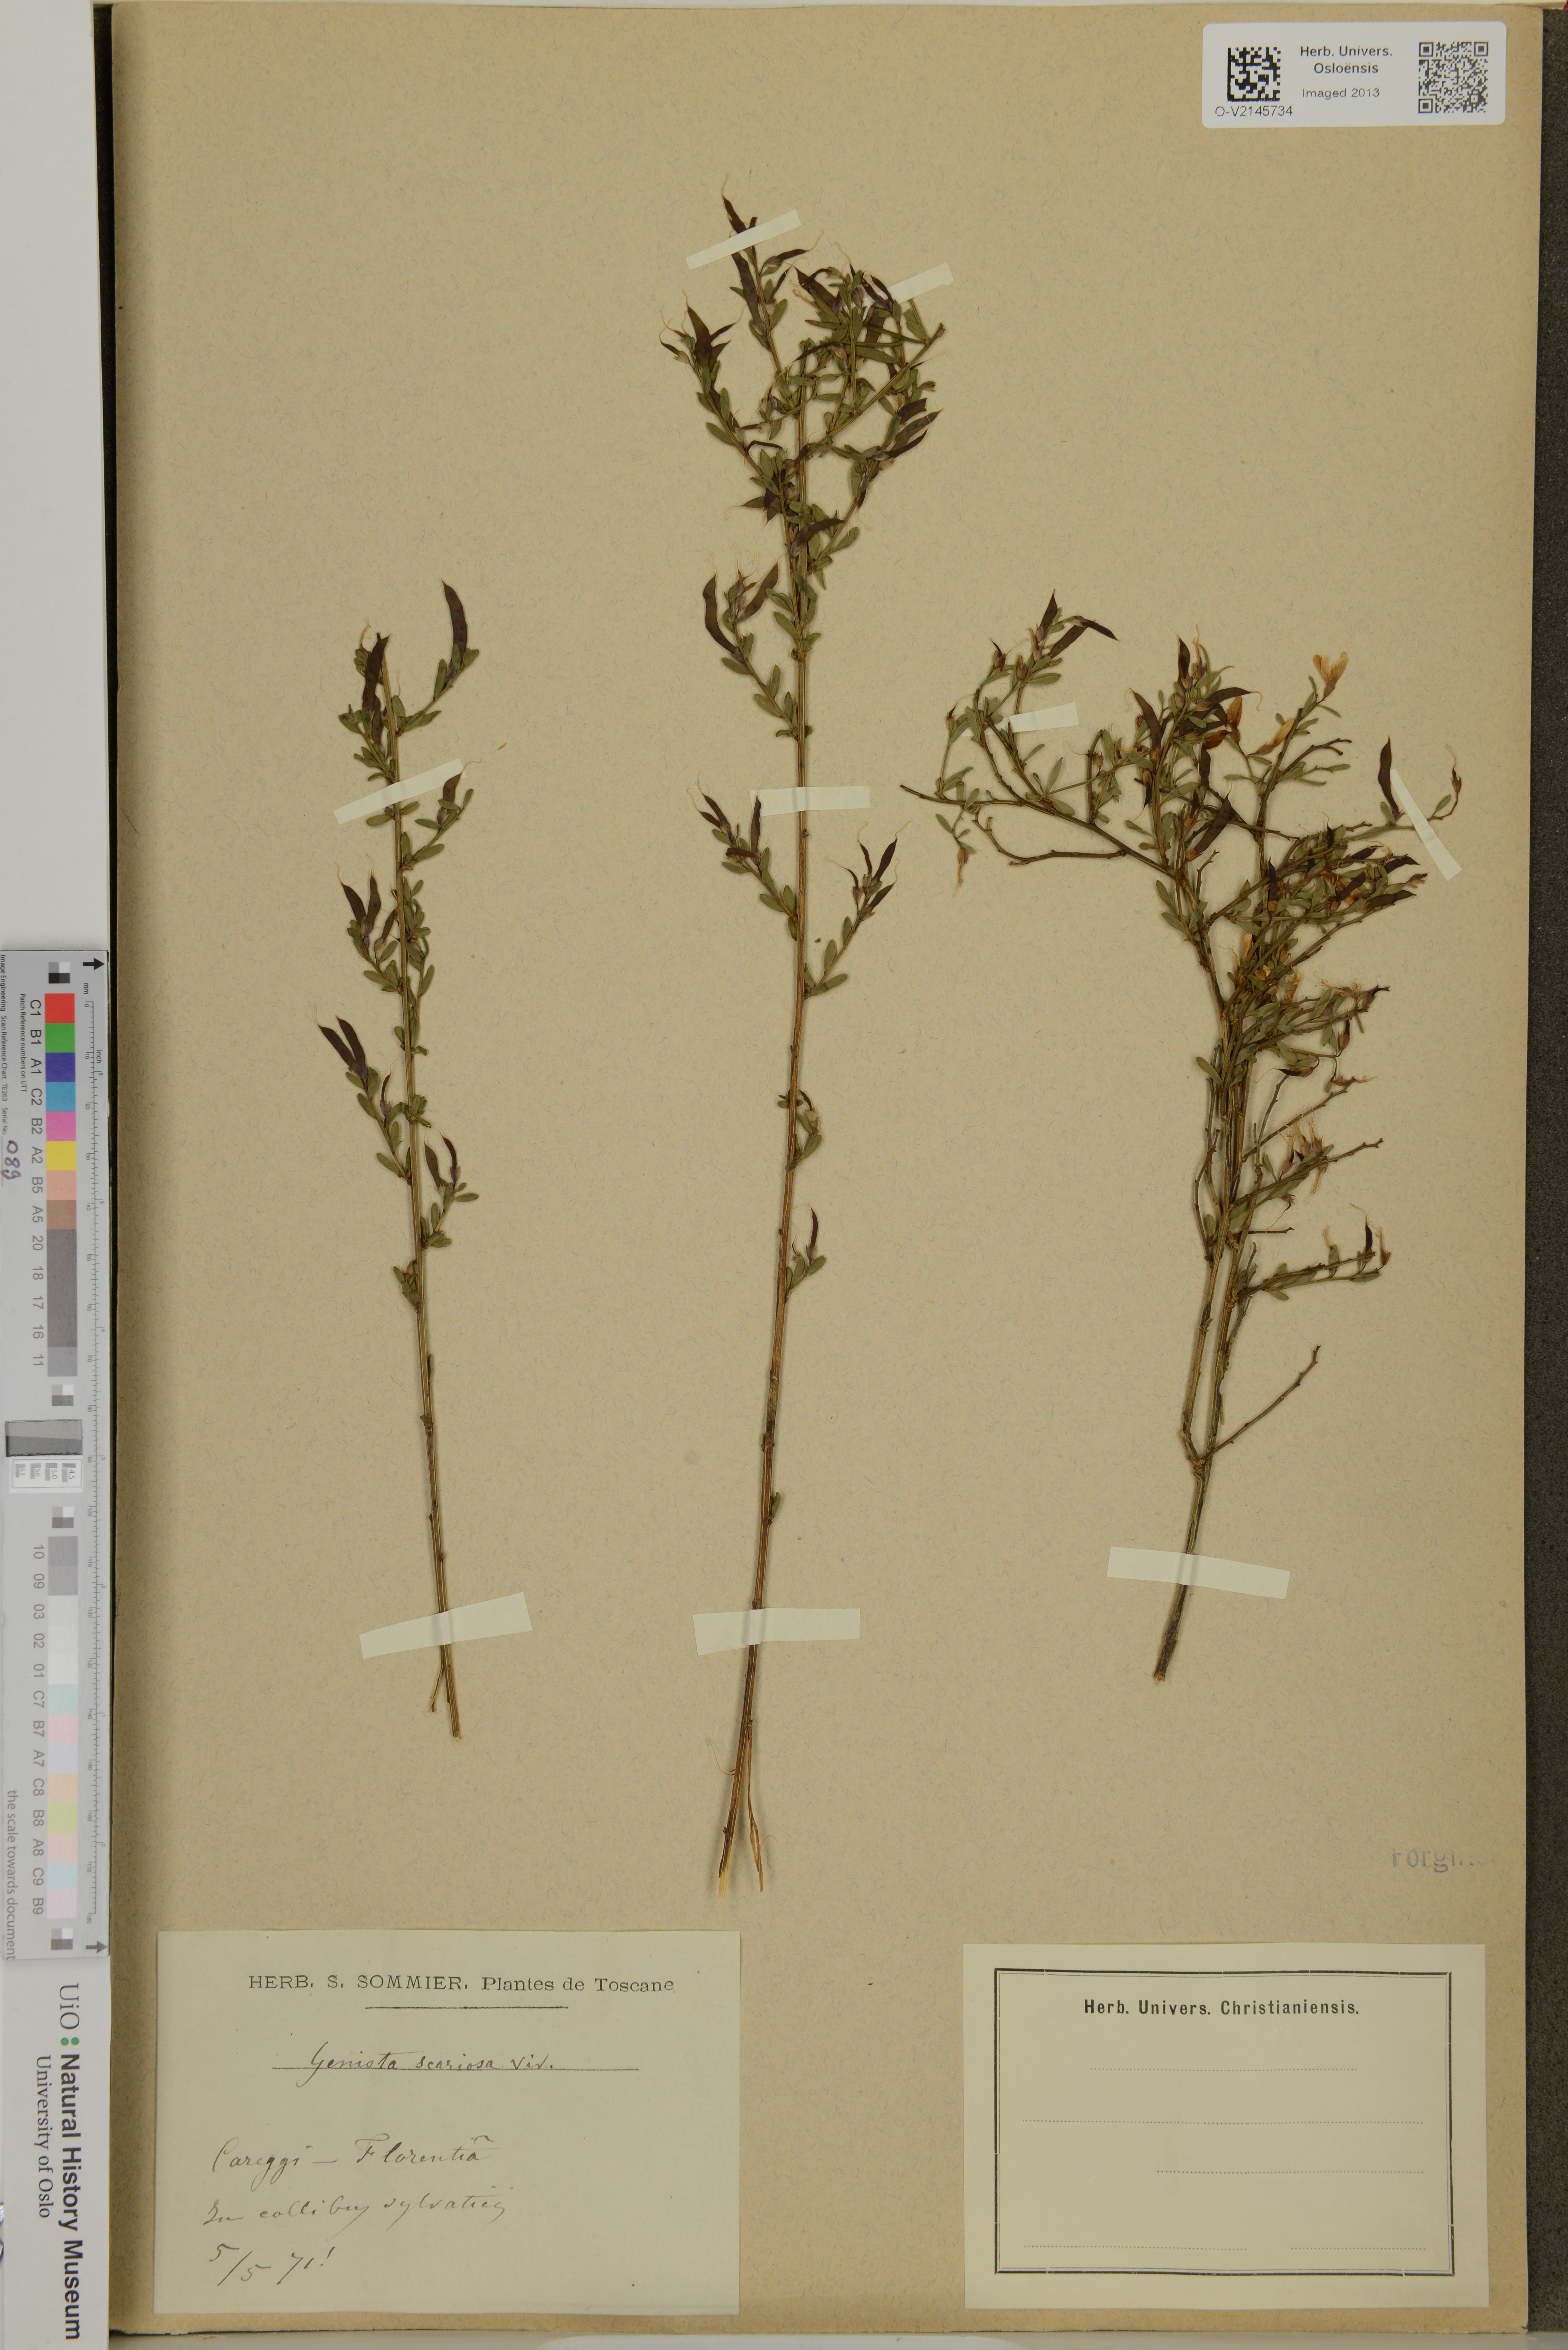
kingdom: Plantae
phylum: Tracheophyta
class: Magnoliopsida
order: Fabales
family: Fabaceae
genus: Genista
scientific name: Genista januensis
